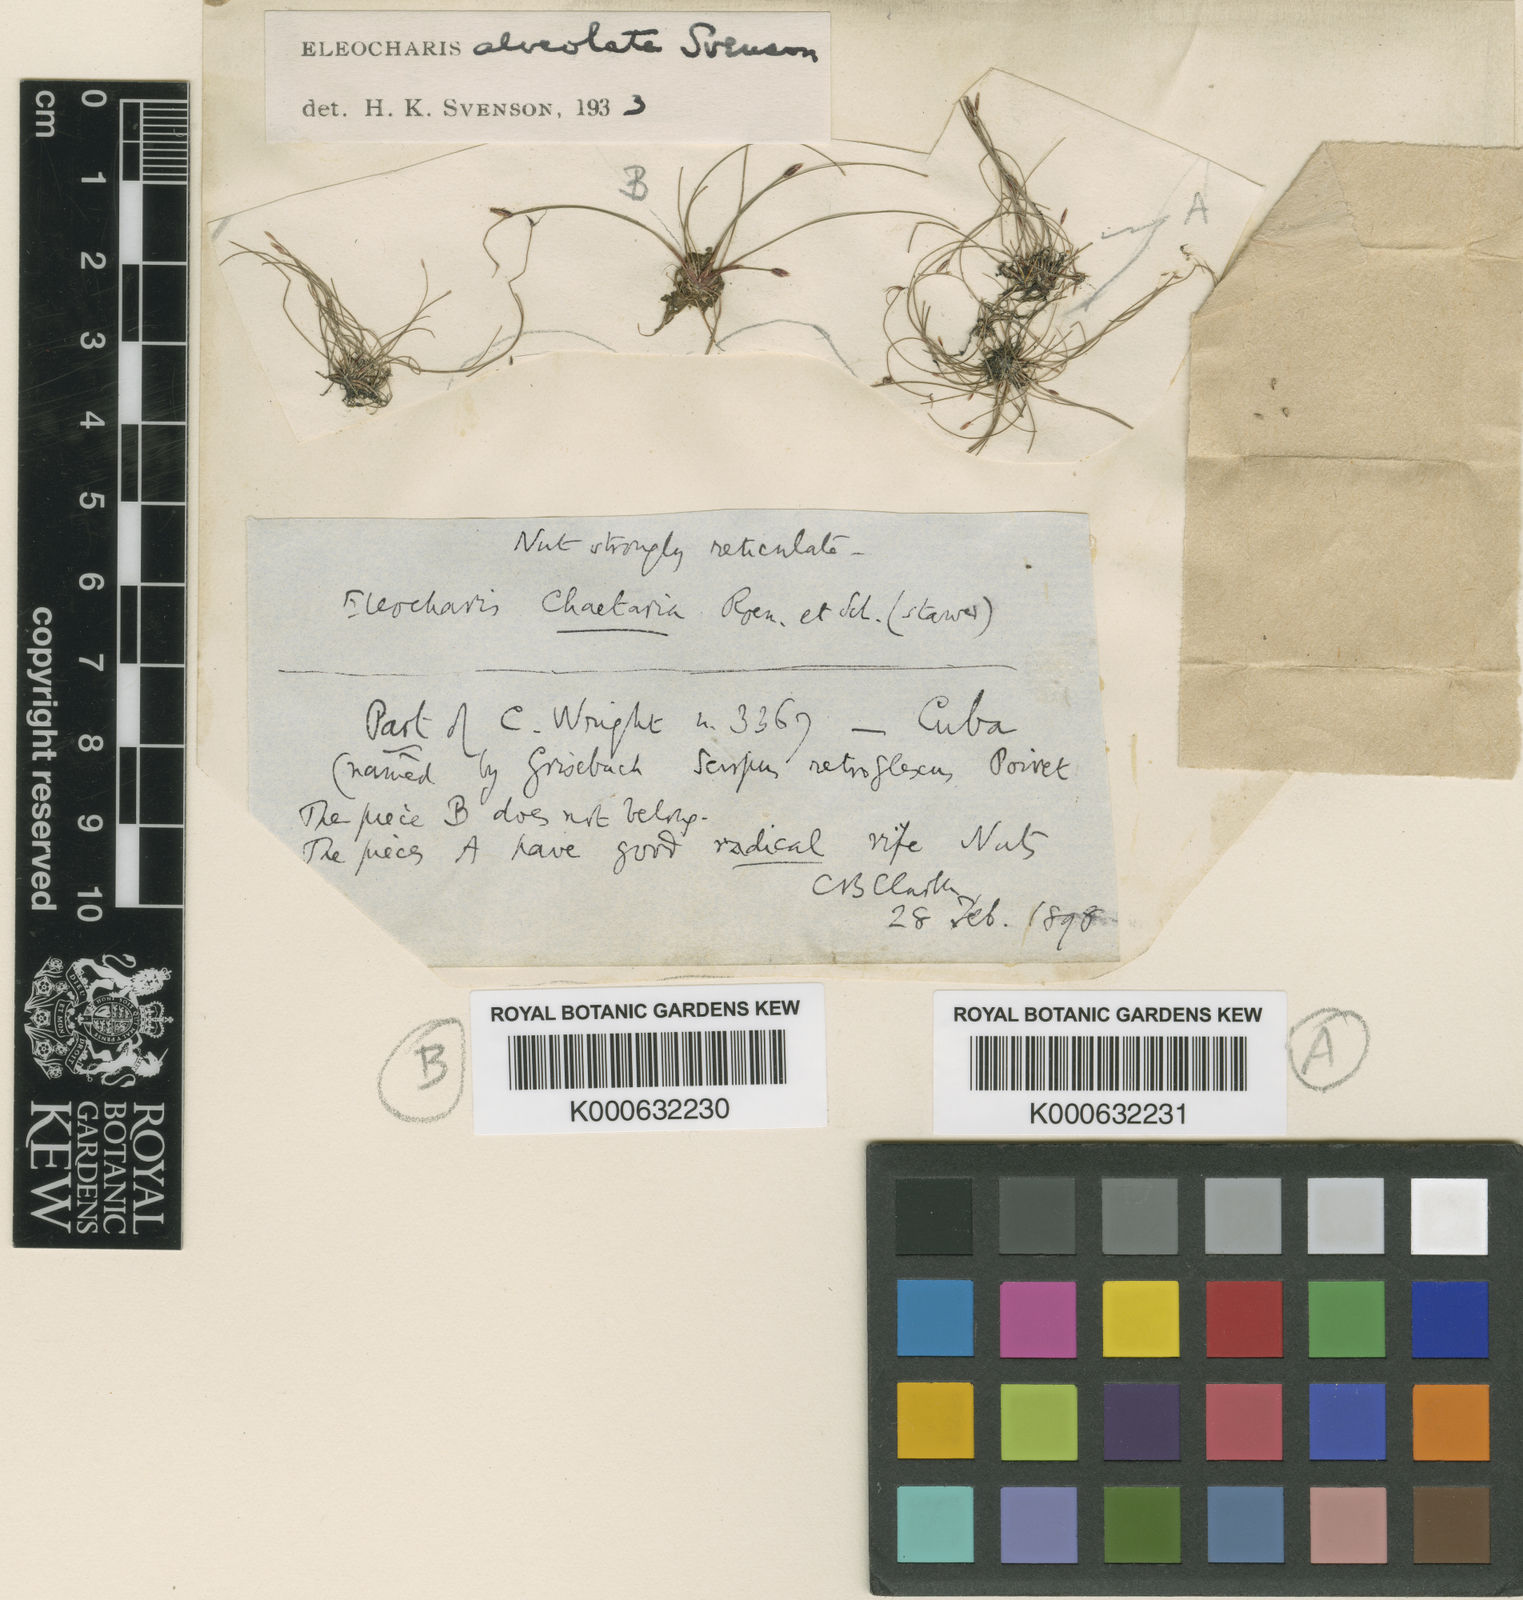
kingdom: Plantae
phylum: Tracheophyta
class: Liliopsida
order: Poales
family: Cyperaceae
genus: Eleocharis
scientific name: Eleocharis alveolata
